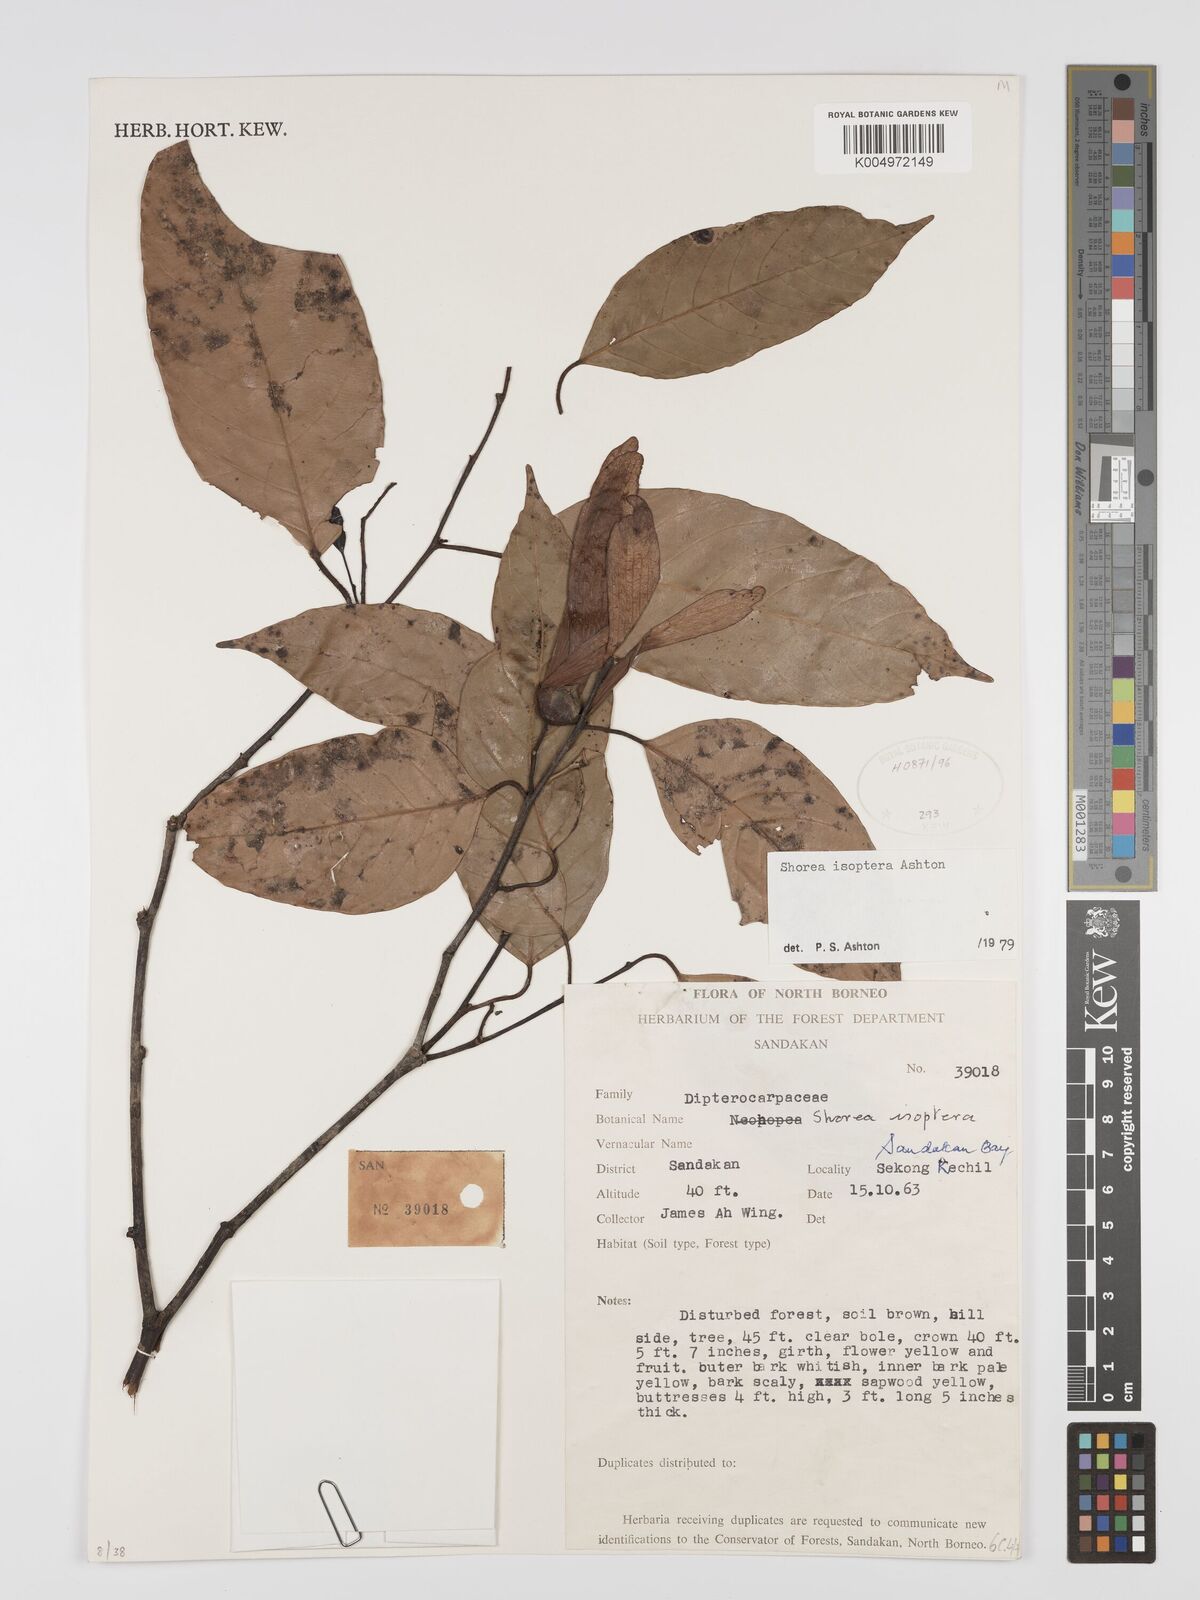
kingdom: Plantae
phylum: Tracheophyta
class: Magnoliopsida
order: Malvales
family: Dipterocarpaceae
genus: Neohopea
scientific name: Neohopea isoptera
